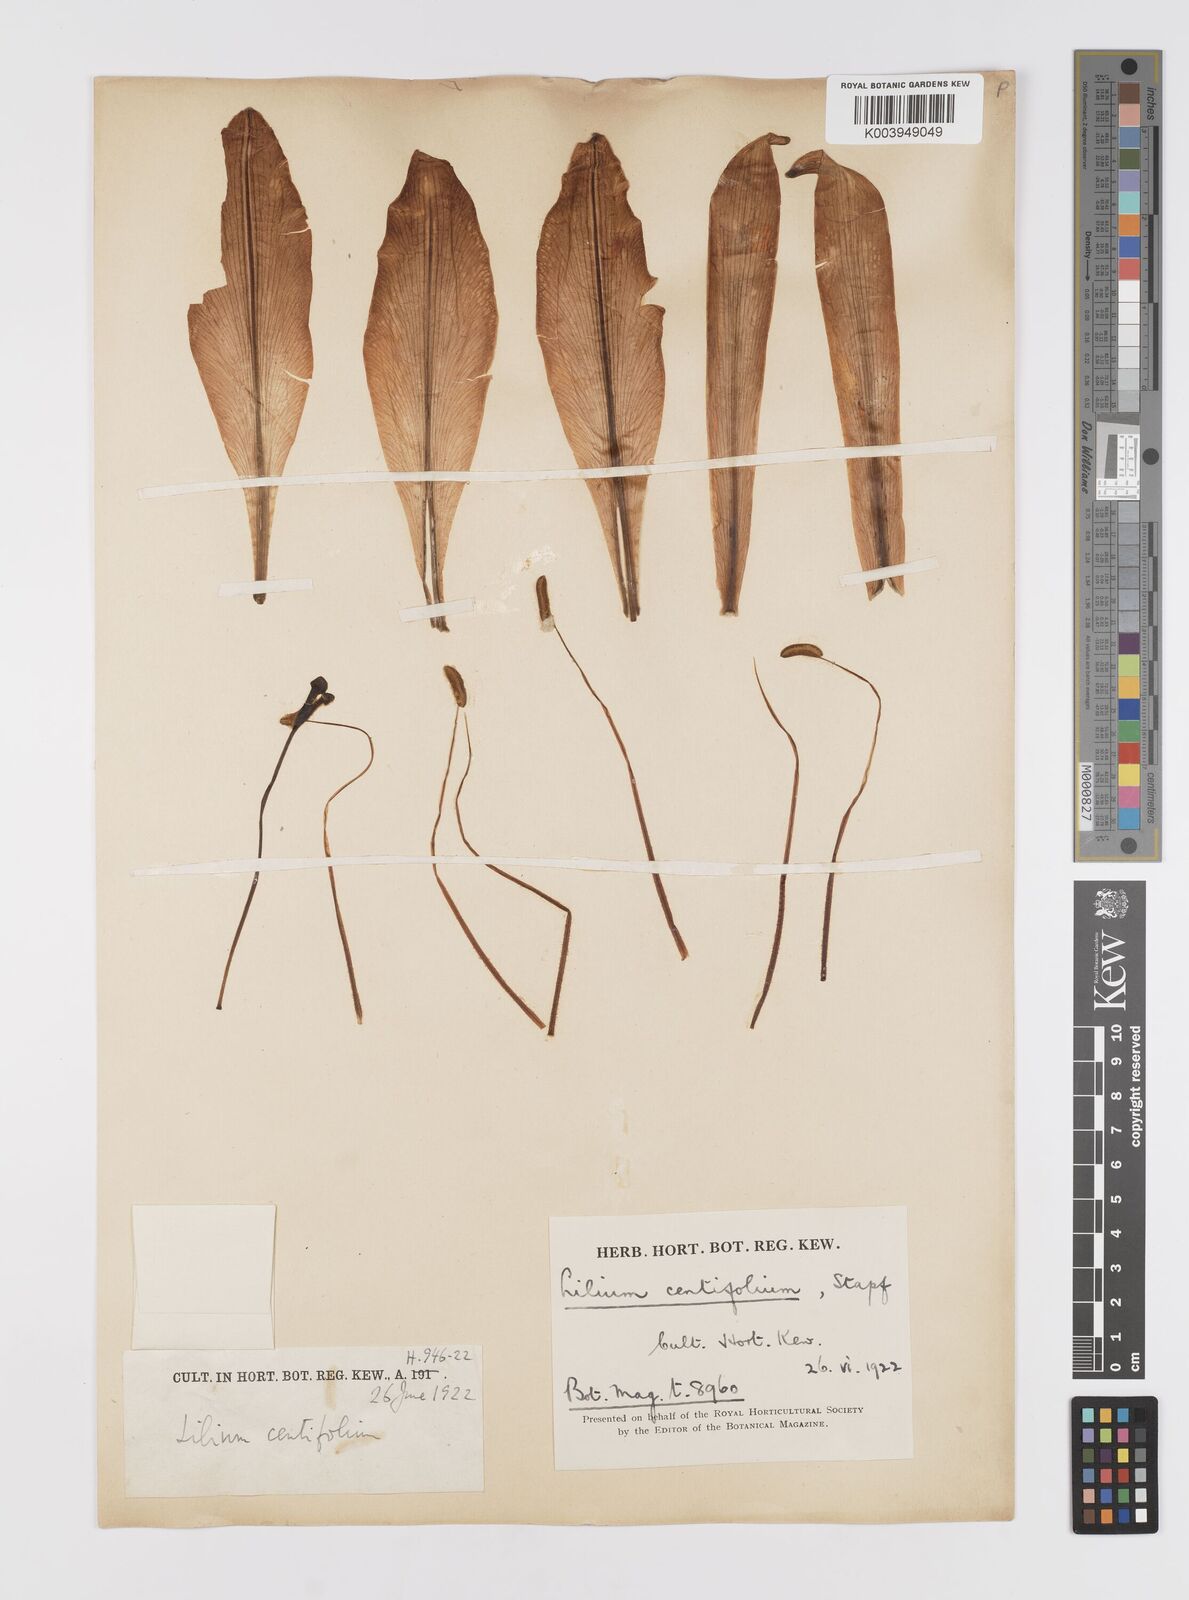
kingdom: Plantae
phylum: Tracheophyta
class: Liliopsida
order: Liliales
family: Liliaceae
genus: Lilium
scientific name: Lilium leucanthum
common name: Chinese white lily
